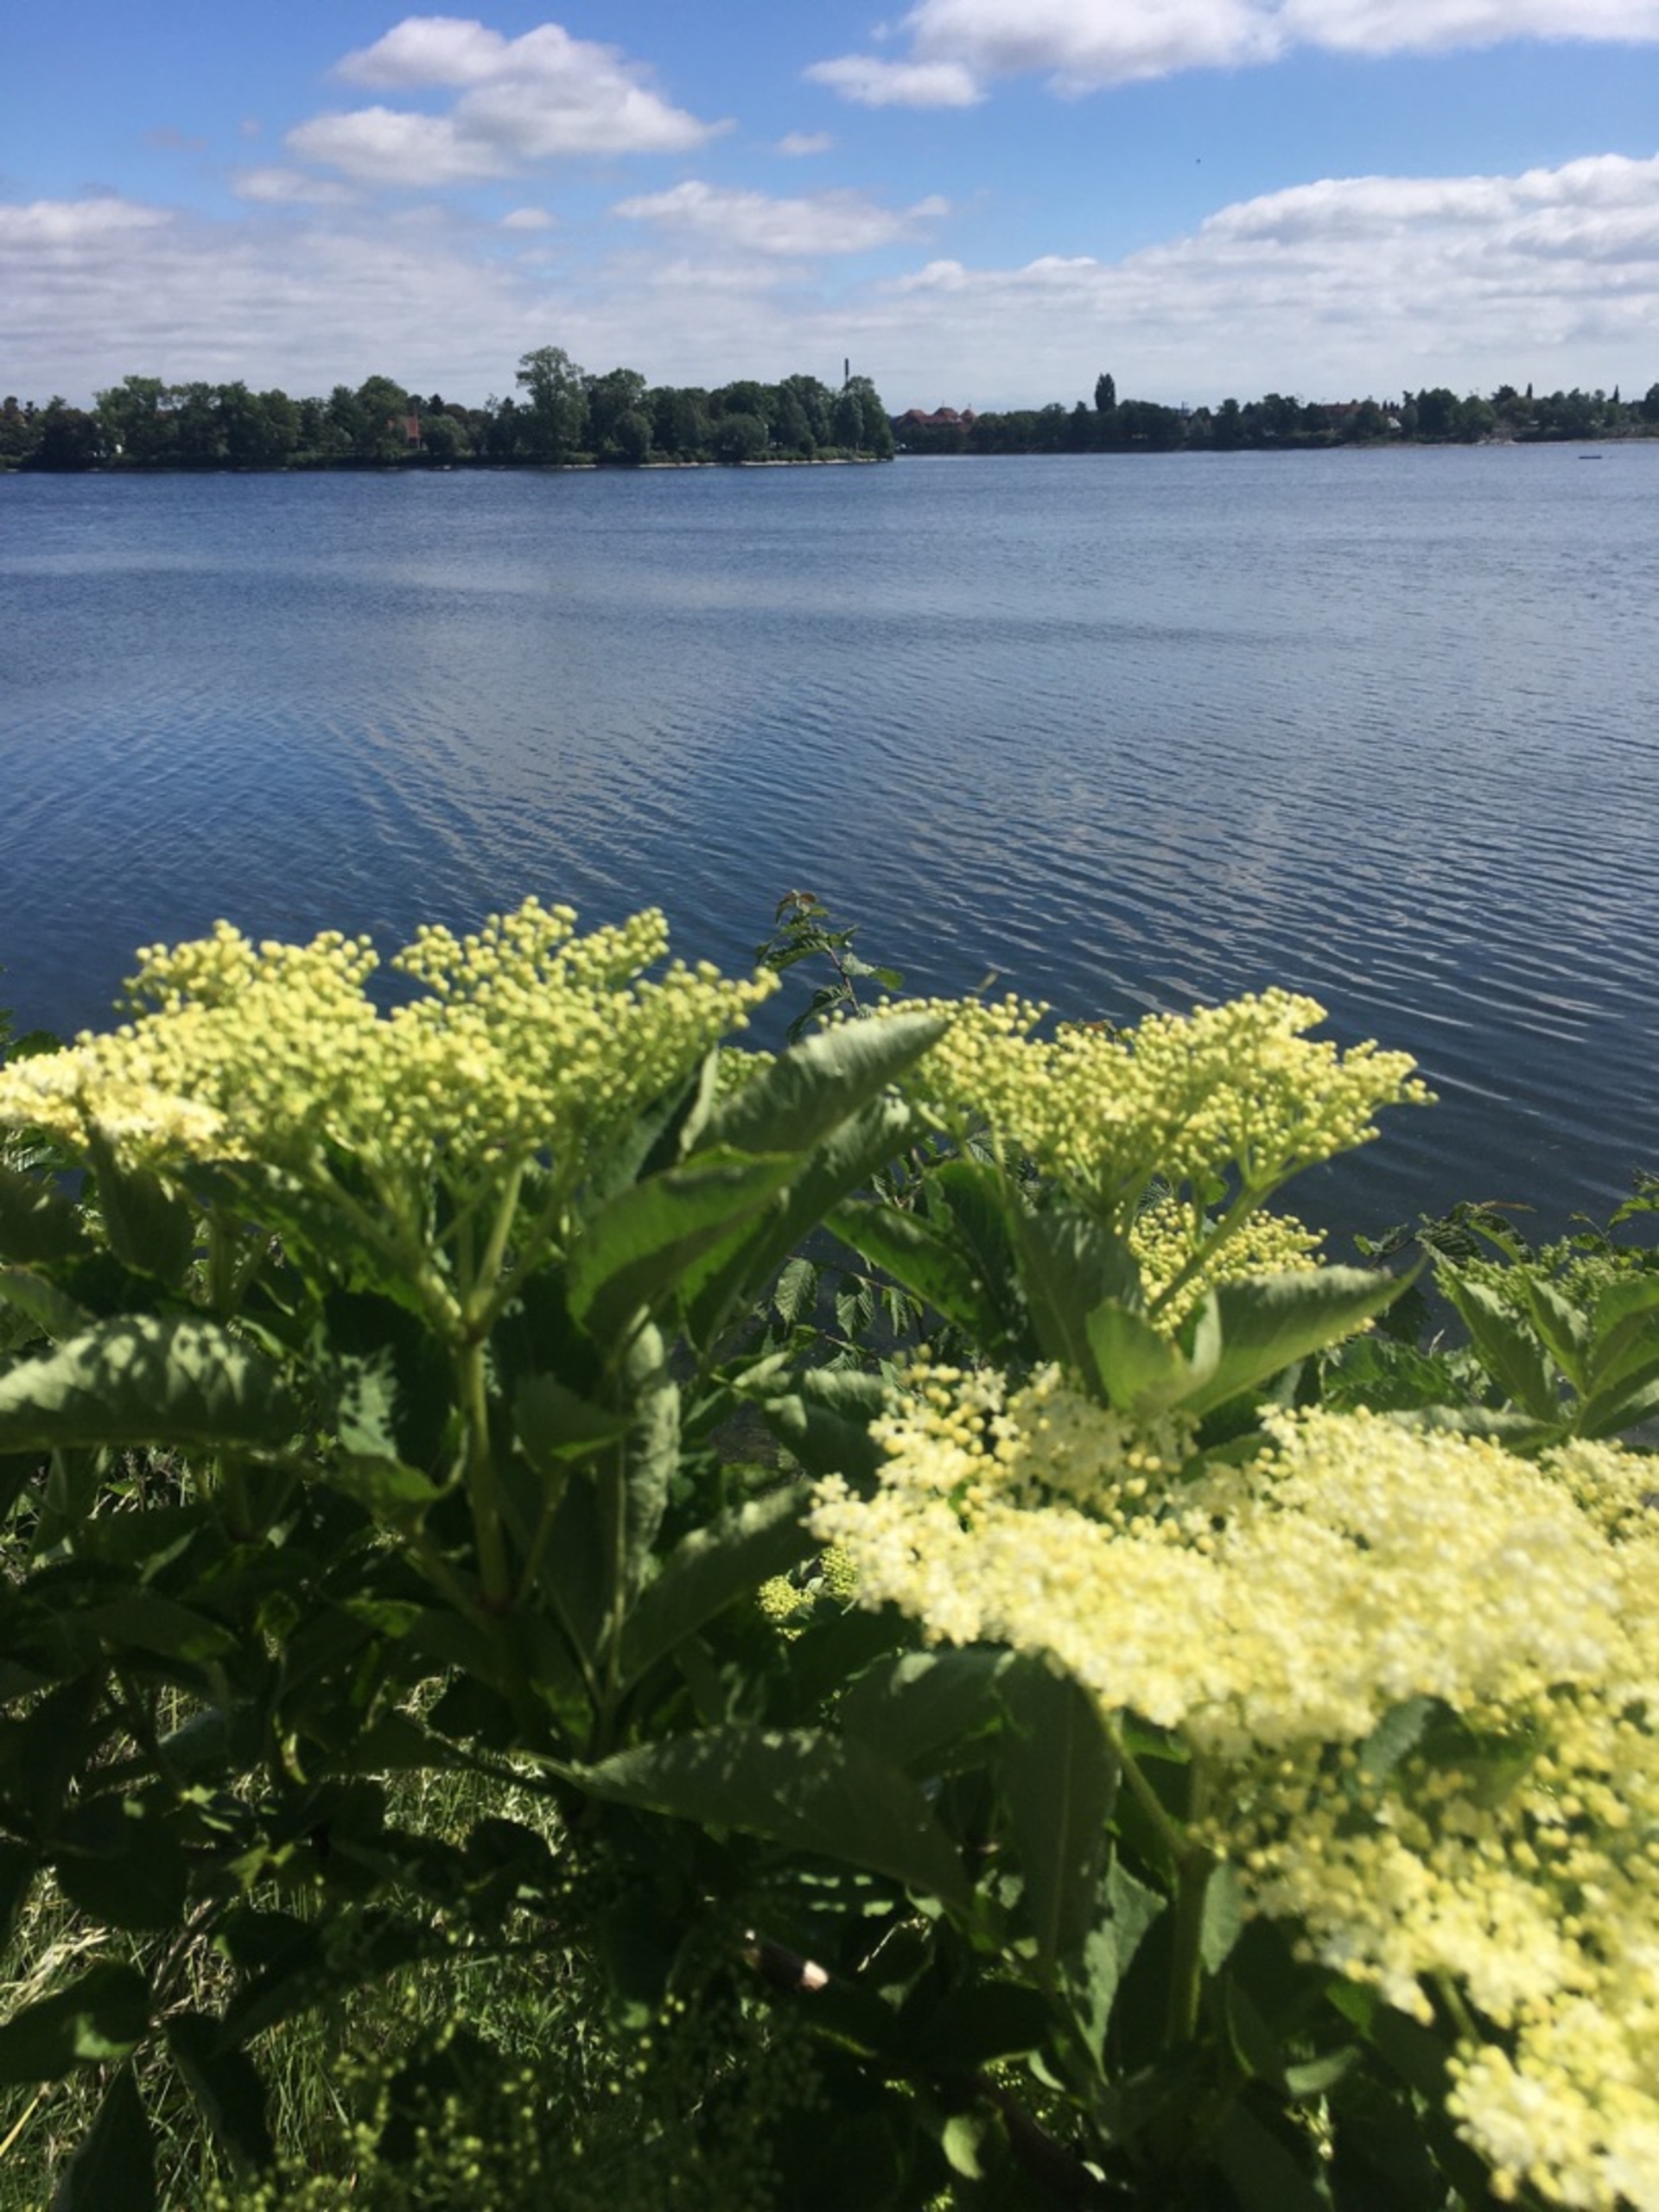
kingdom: Plantae
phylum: Tracheophyta
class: Magnoliopsida
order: Dipsacales
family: Viburnaceae
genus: Sambucus
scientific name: Sambucus nigra
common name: Almindelig hyld
